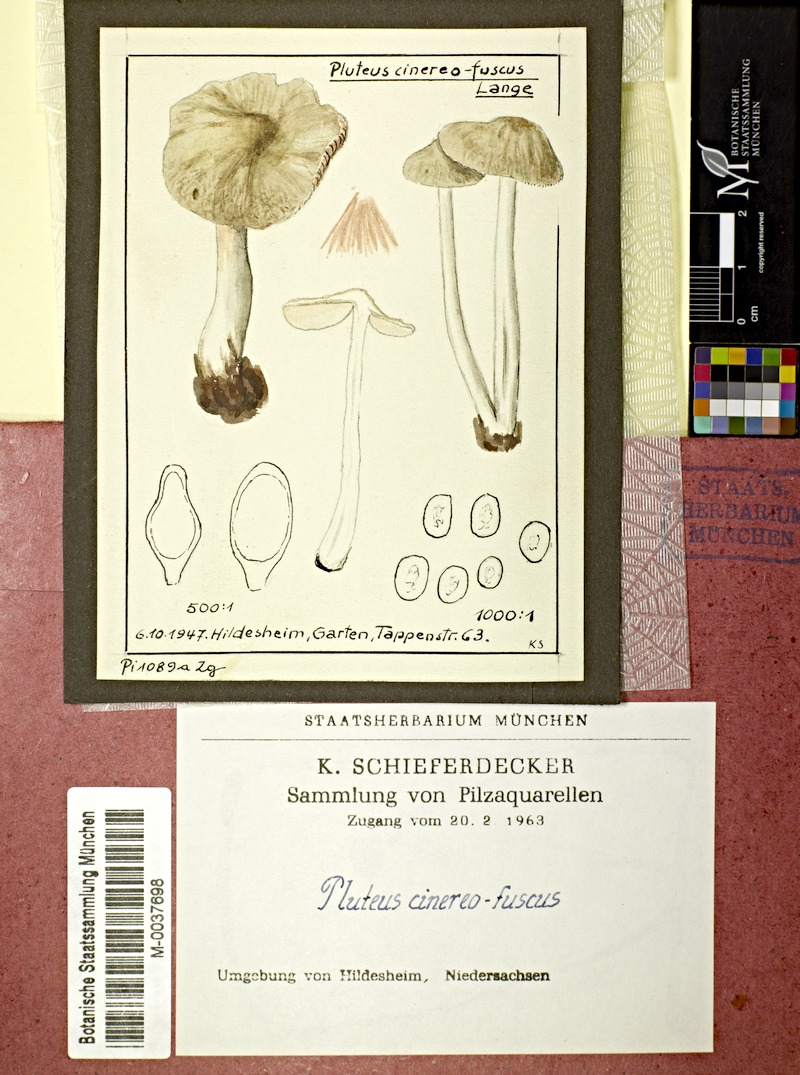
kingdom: Fungi
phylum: Basidiomycota
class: Agaricomycetes
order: Agaricales
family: Pluteaceae
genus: Pluteus
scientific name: Pluteus cinereofuscus
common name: Ashen shield
